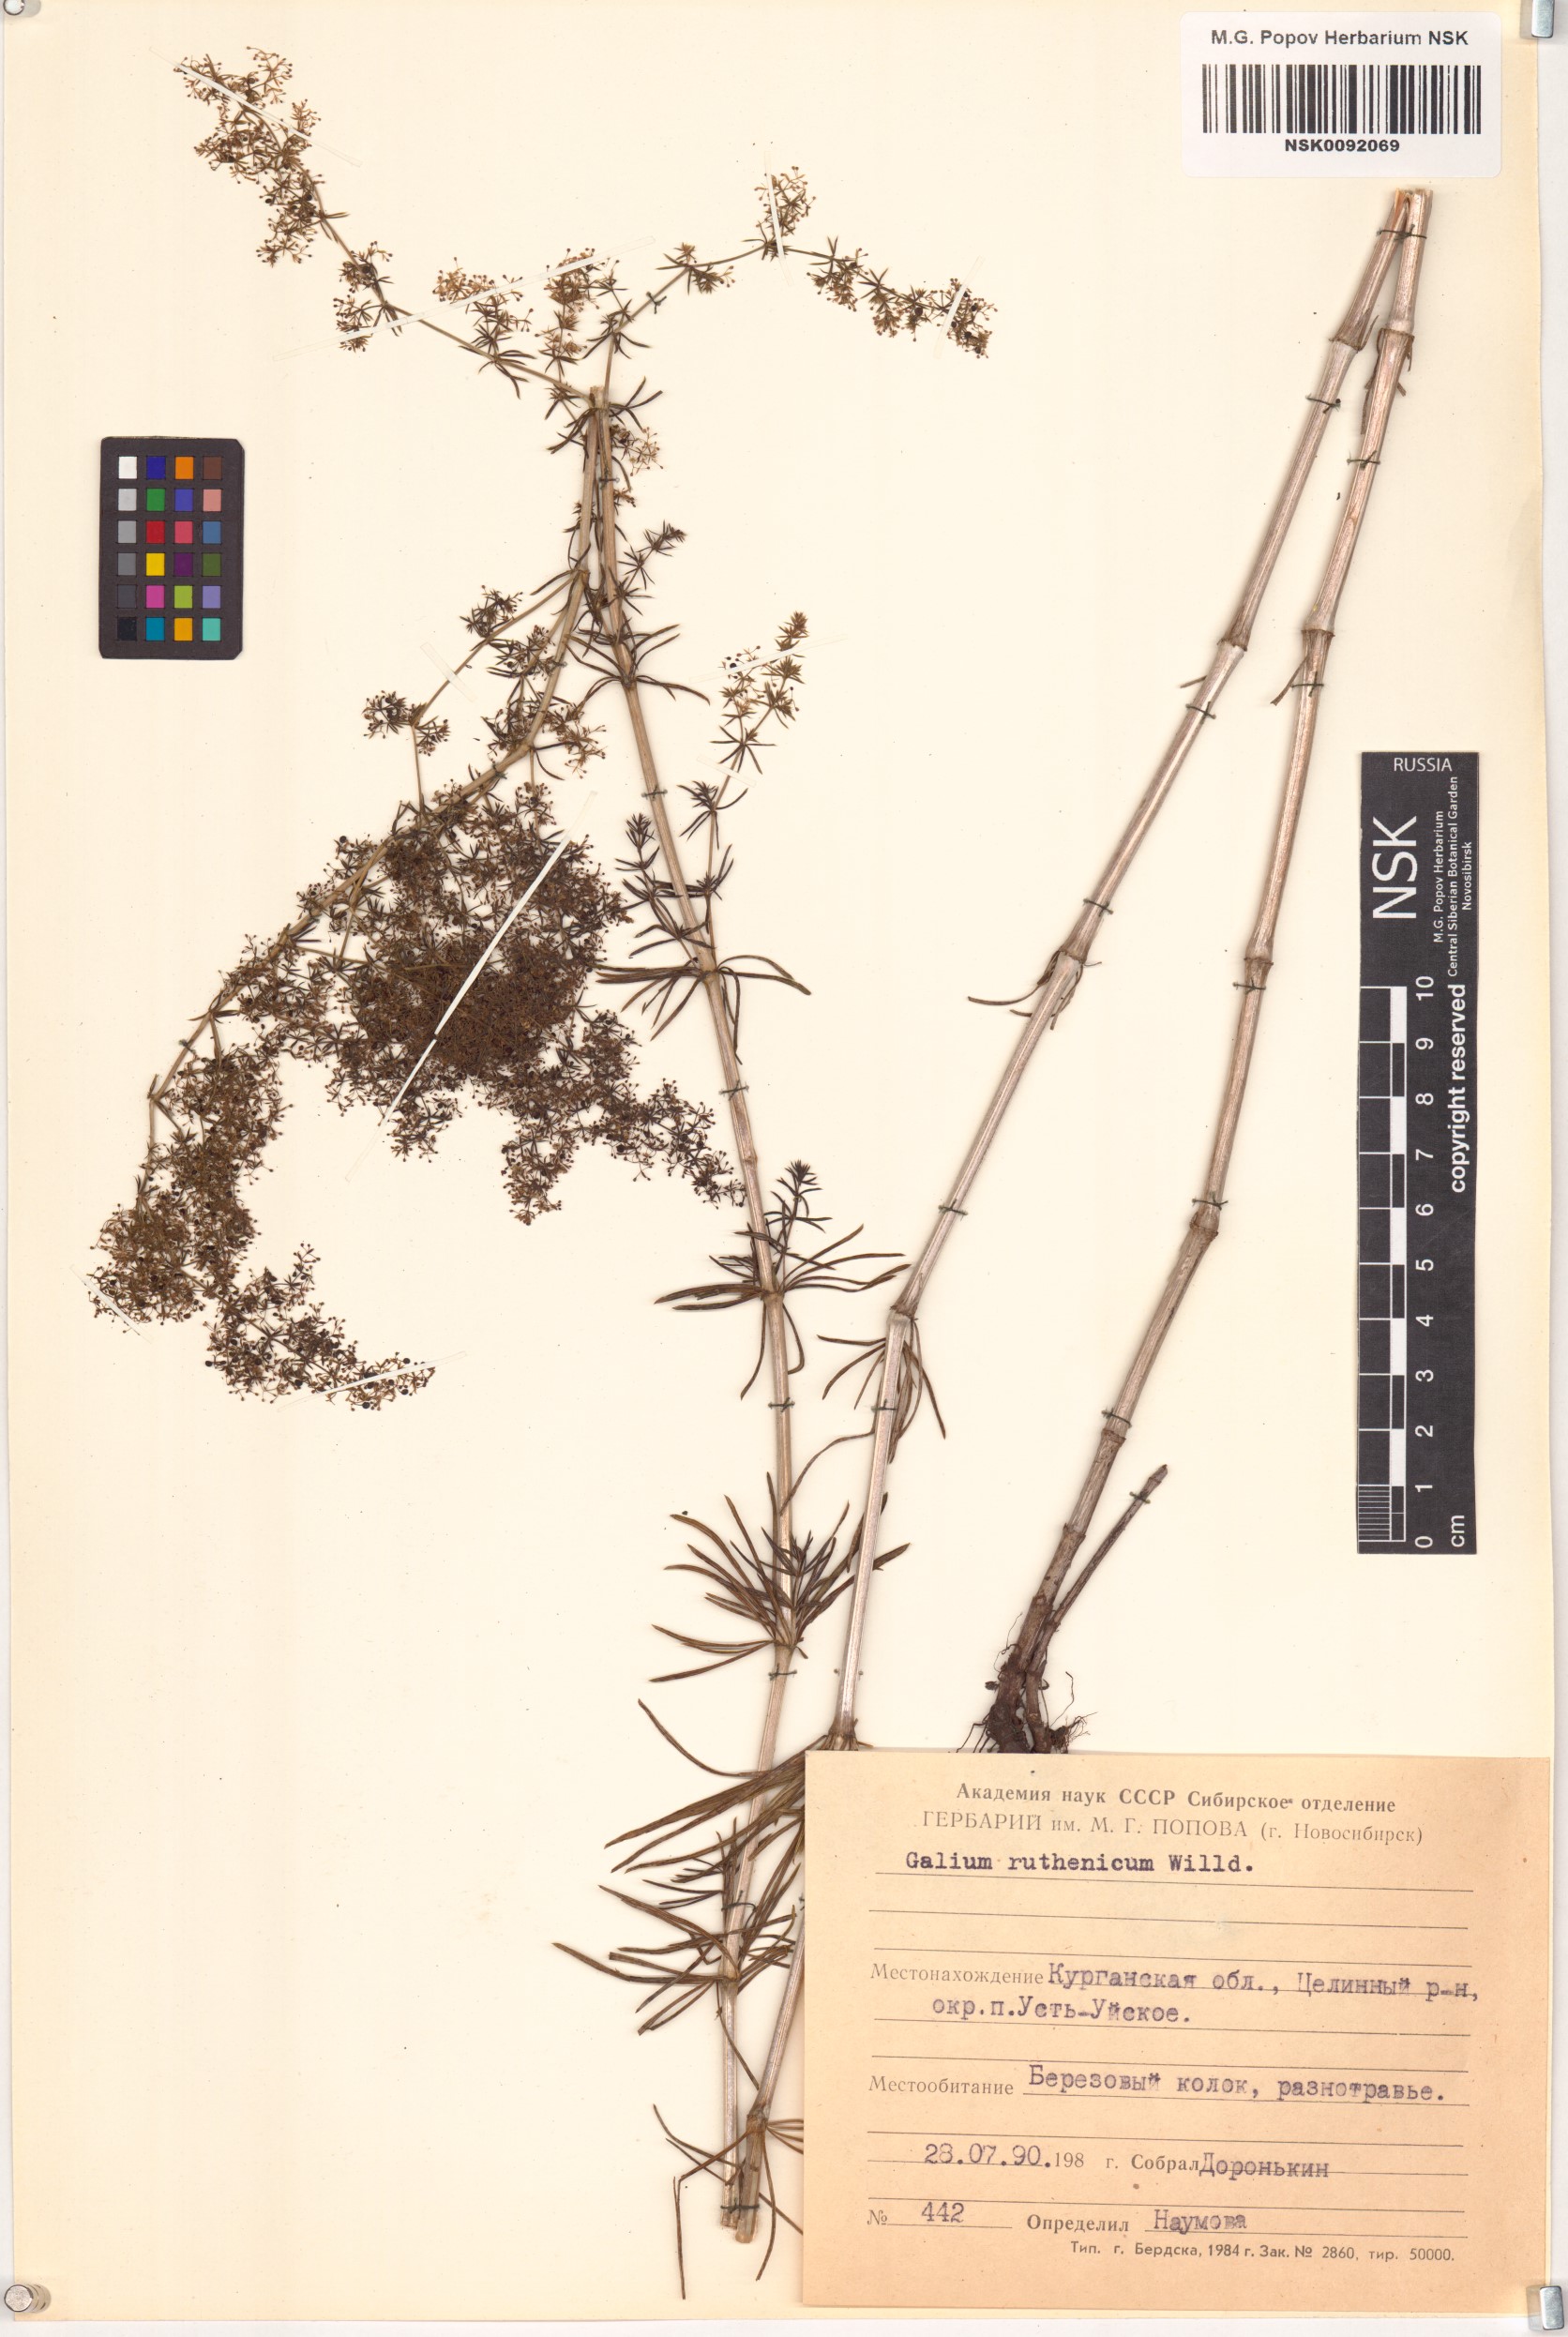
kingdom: Plantae
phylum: Tracheophyta
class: Magnoliopsida
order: Gentianales
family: Rubiaceae
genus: Galium
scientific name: Galium verum
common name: Lady's bedstraw
